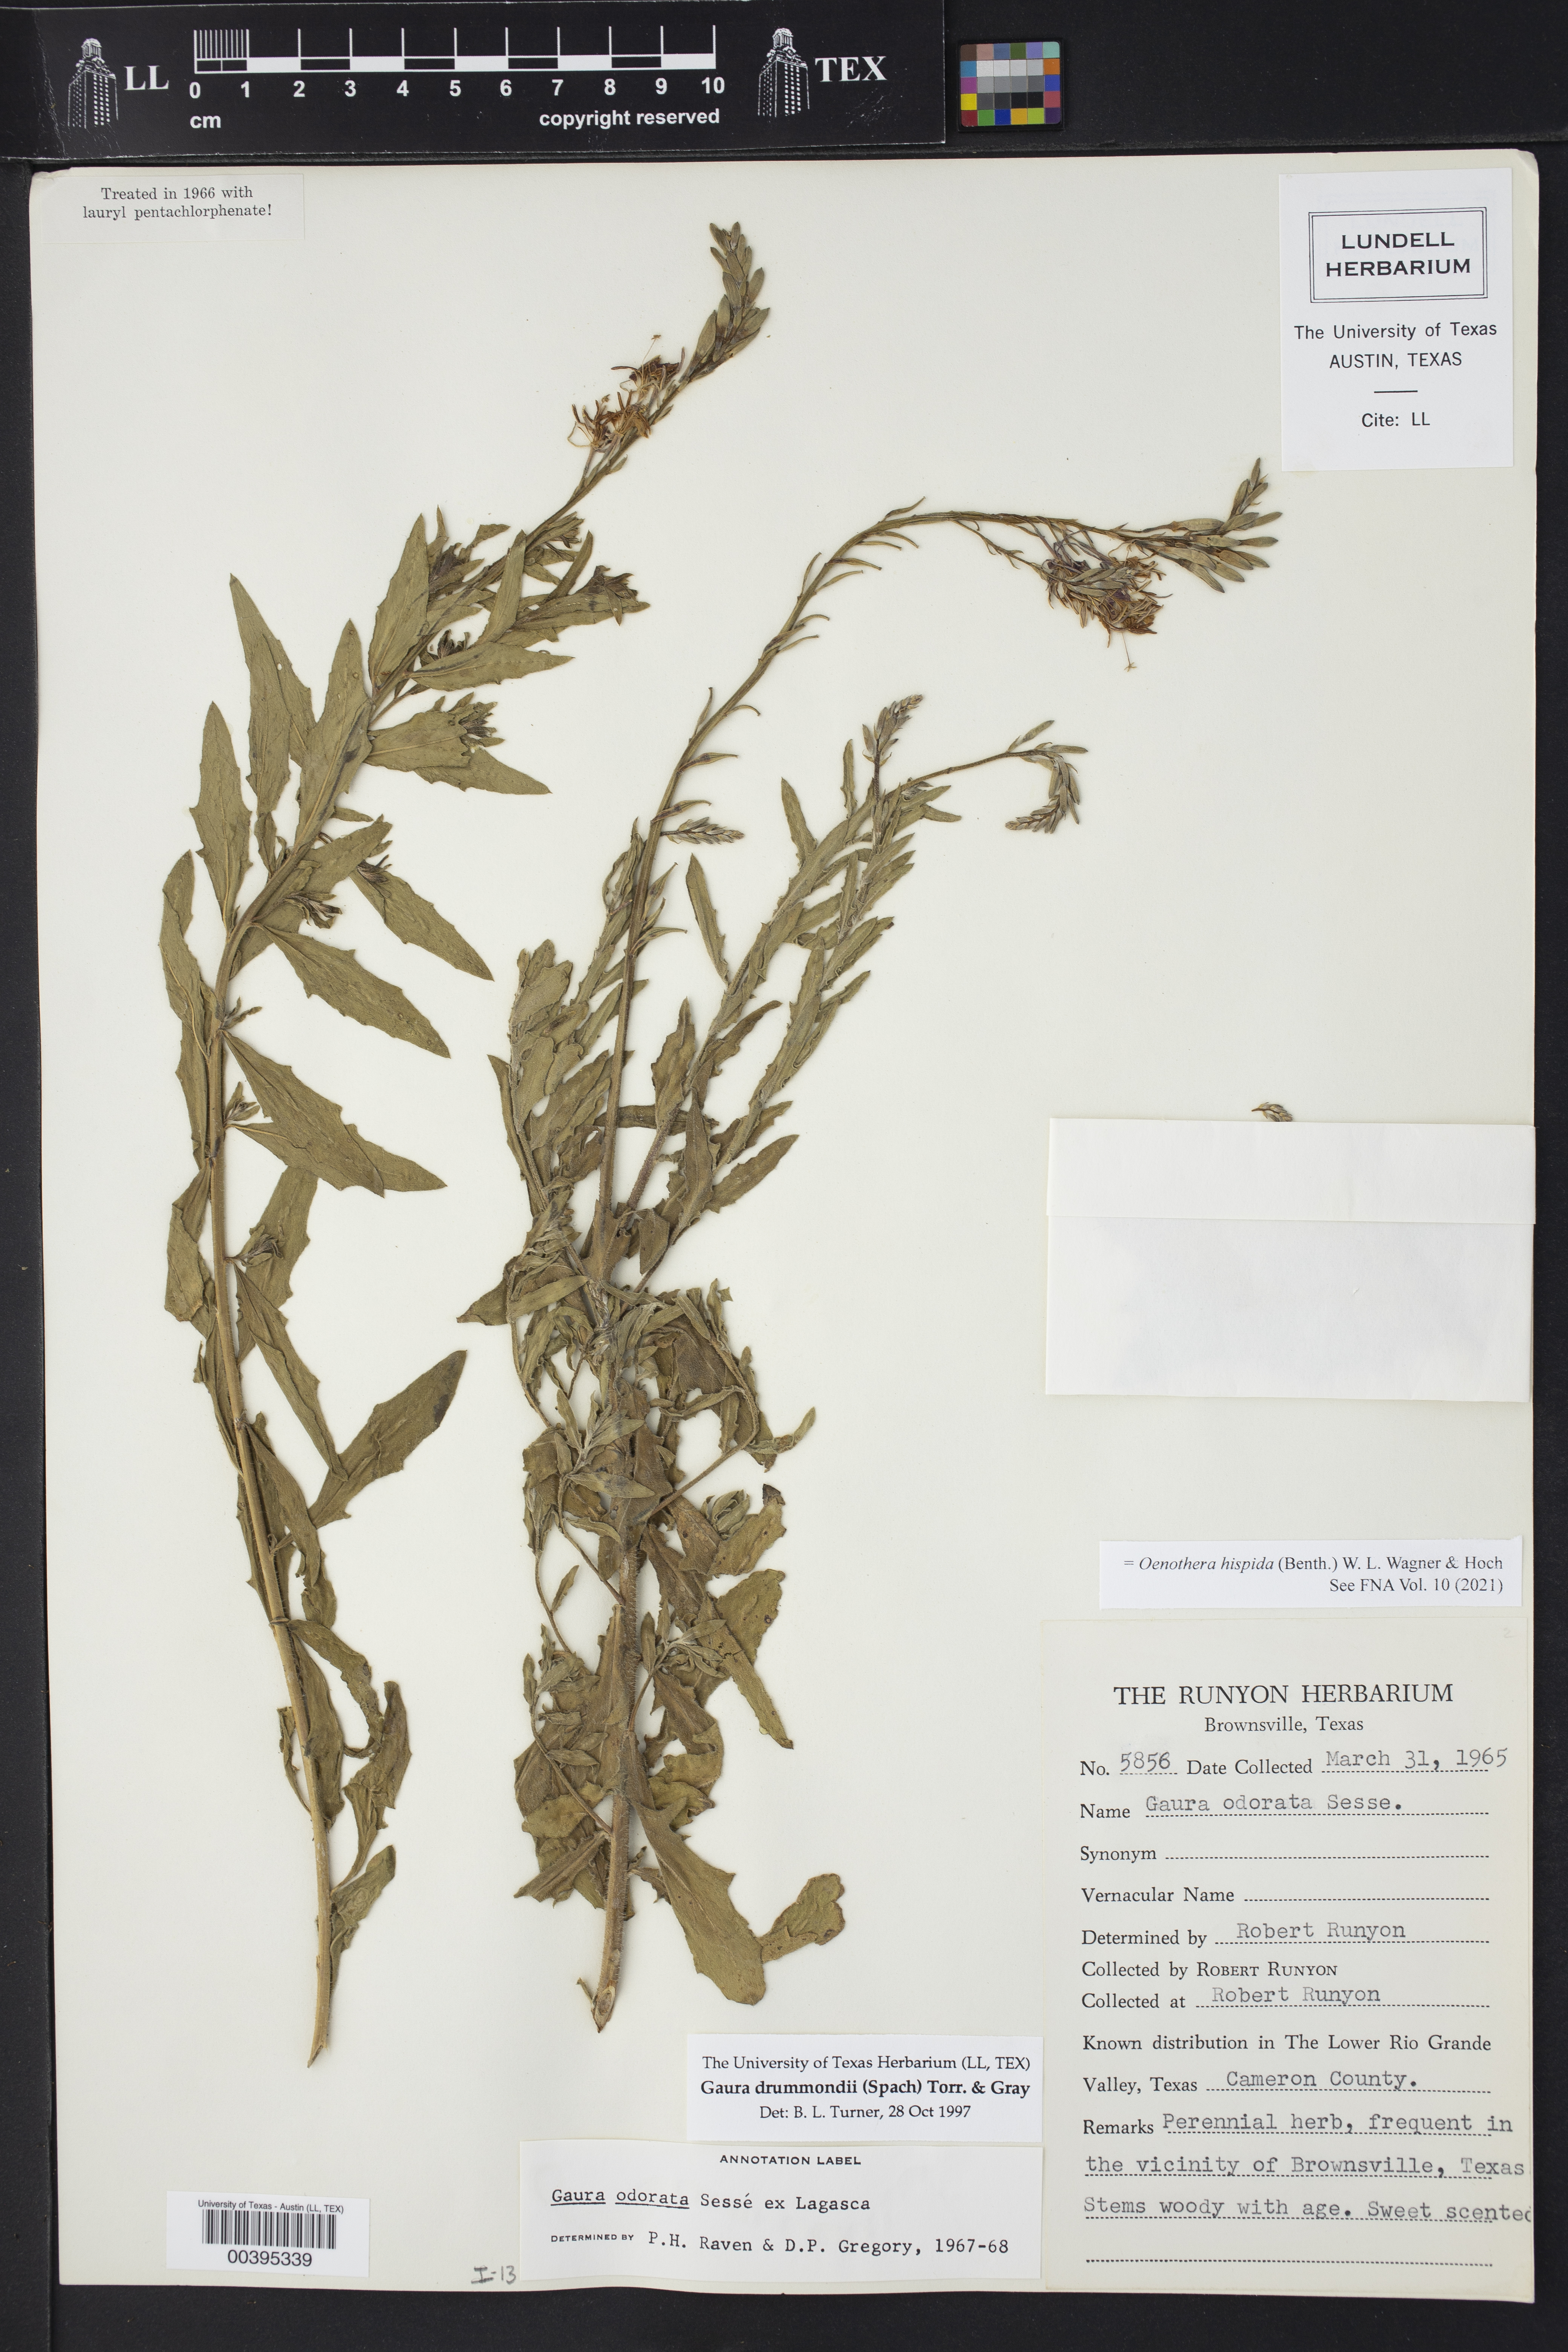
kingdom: Plantae
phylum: Tracheophyta
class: Magnoliopsida
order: Myrtales
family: Onagraceae
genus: Oenothera
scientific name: Oenothera hispida
